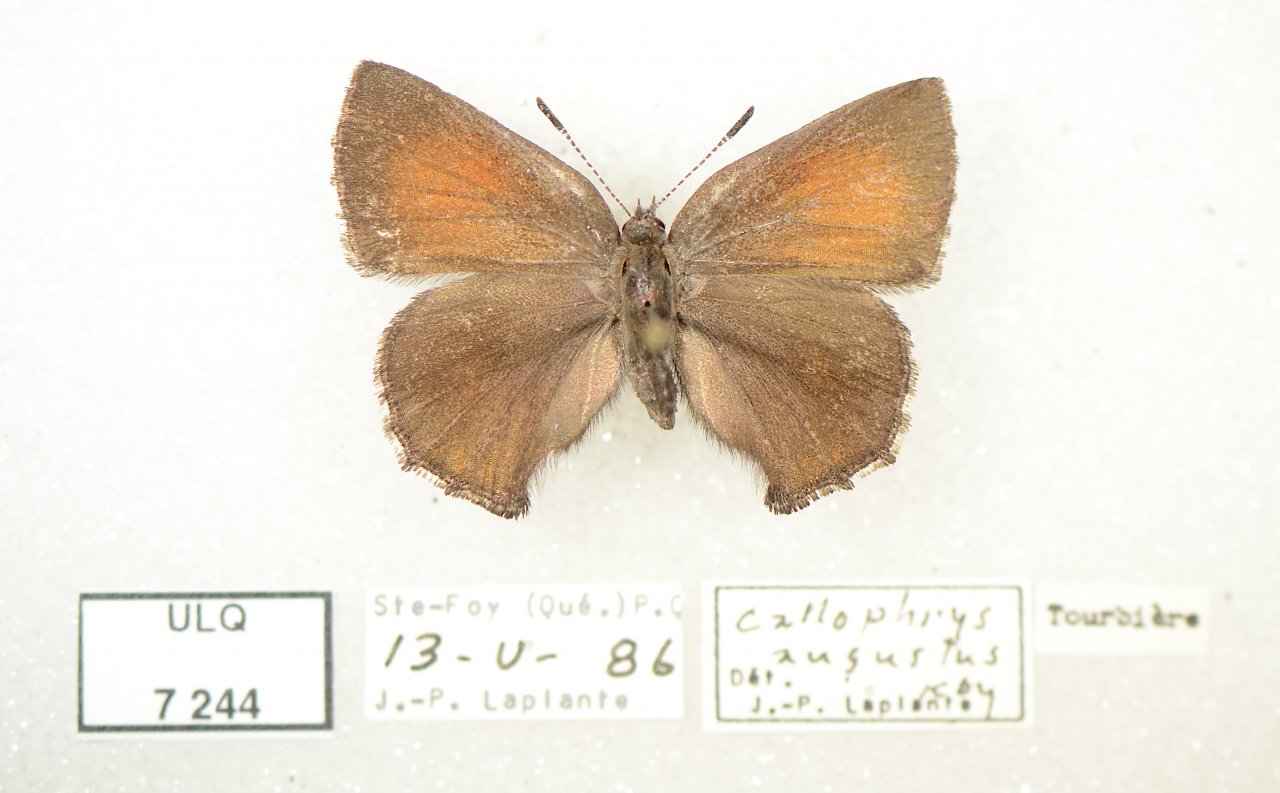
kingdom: Animalia
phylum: Arthropoda
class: Insecta
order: Lepidoptera
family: Lycaenidae
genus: Incisalia
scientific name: Incisalia irioides
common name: Brown Elfin
